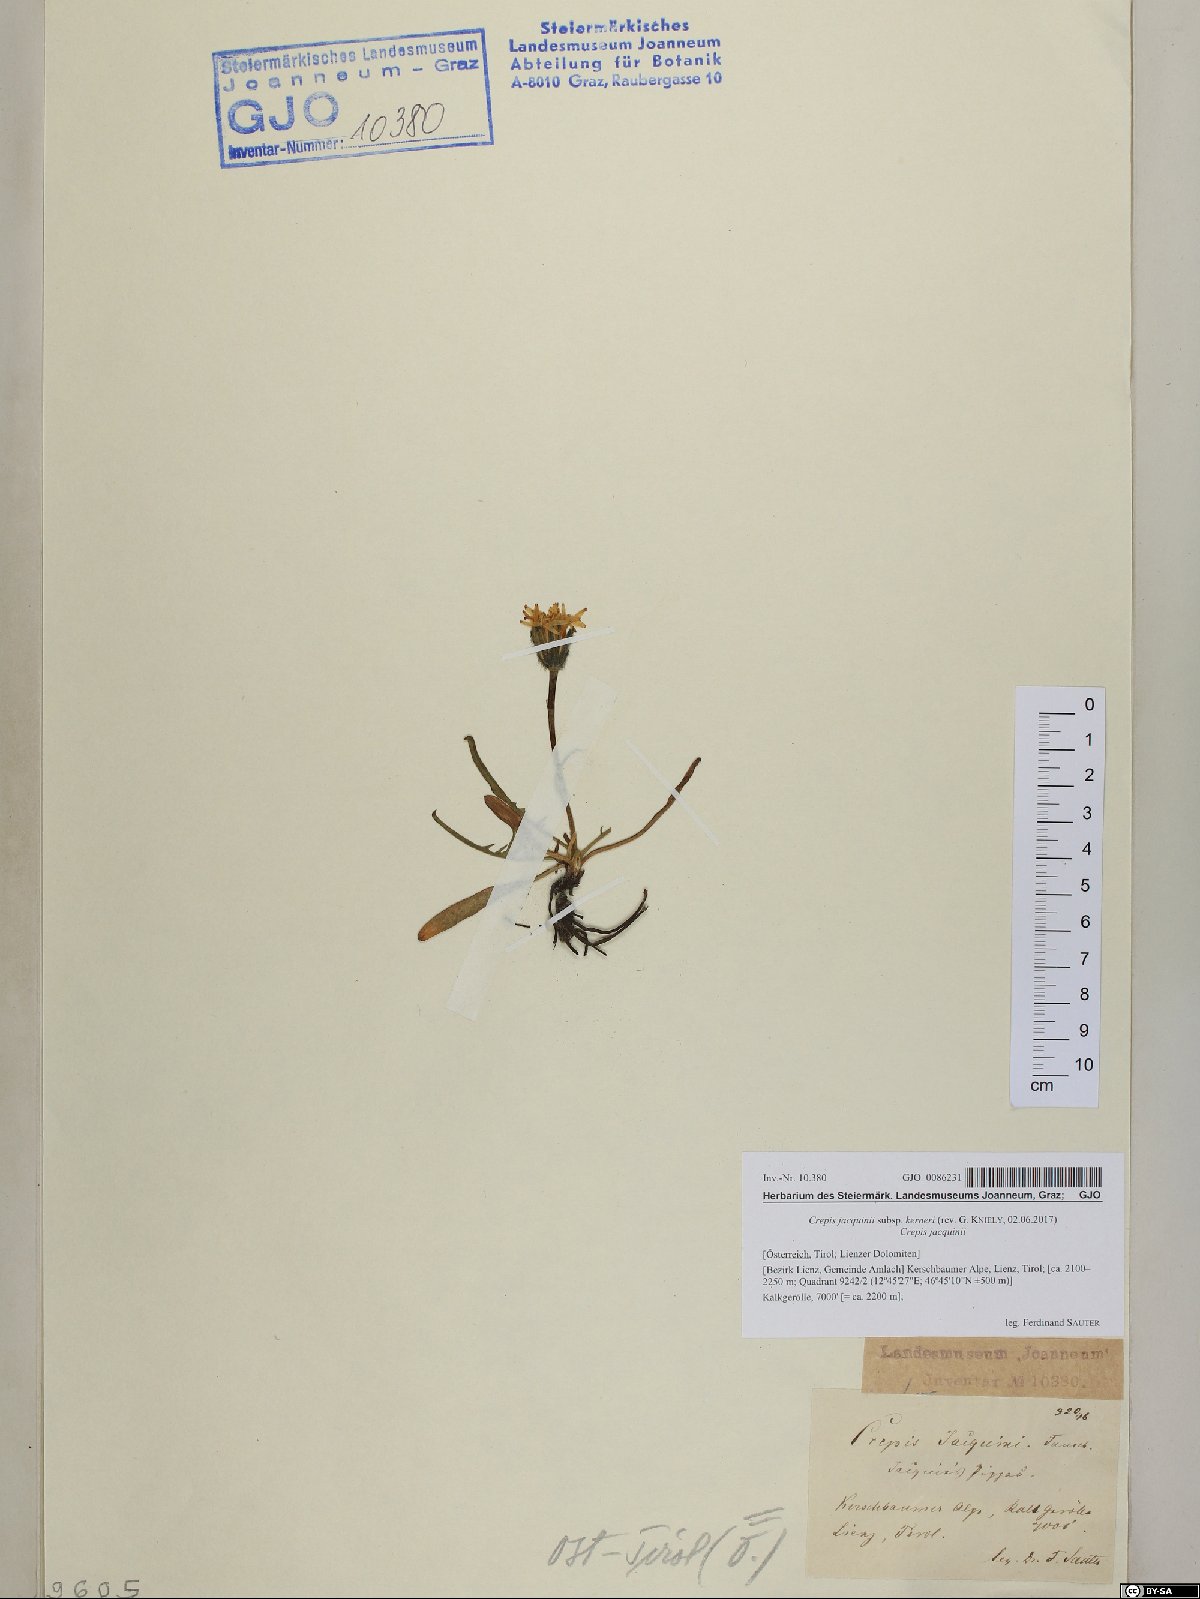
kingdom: Plantae
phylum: Tracheophyta
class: Magnoliopsida
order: Asterales
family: Asteraceae
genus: Crepis
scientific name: Crepis jacquinii
